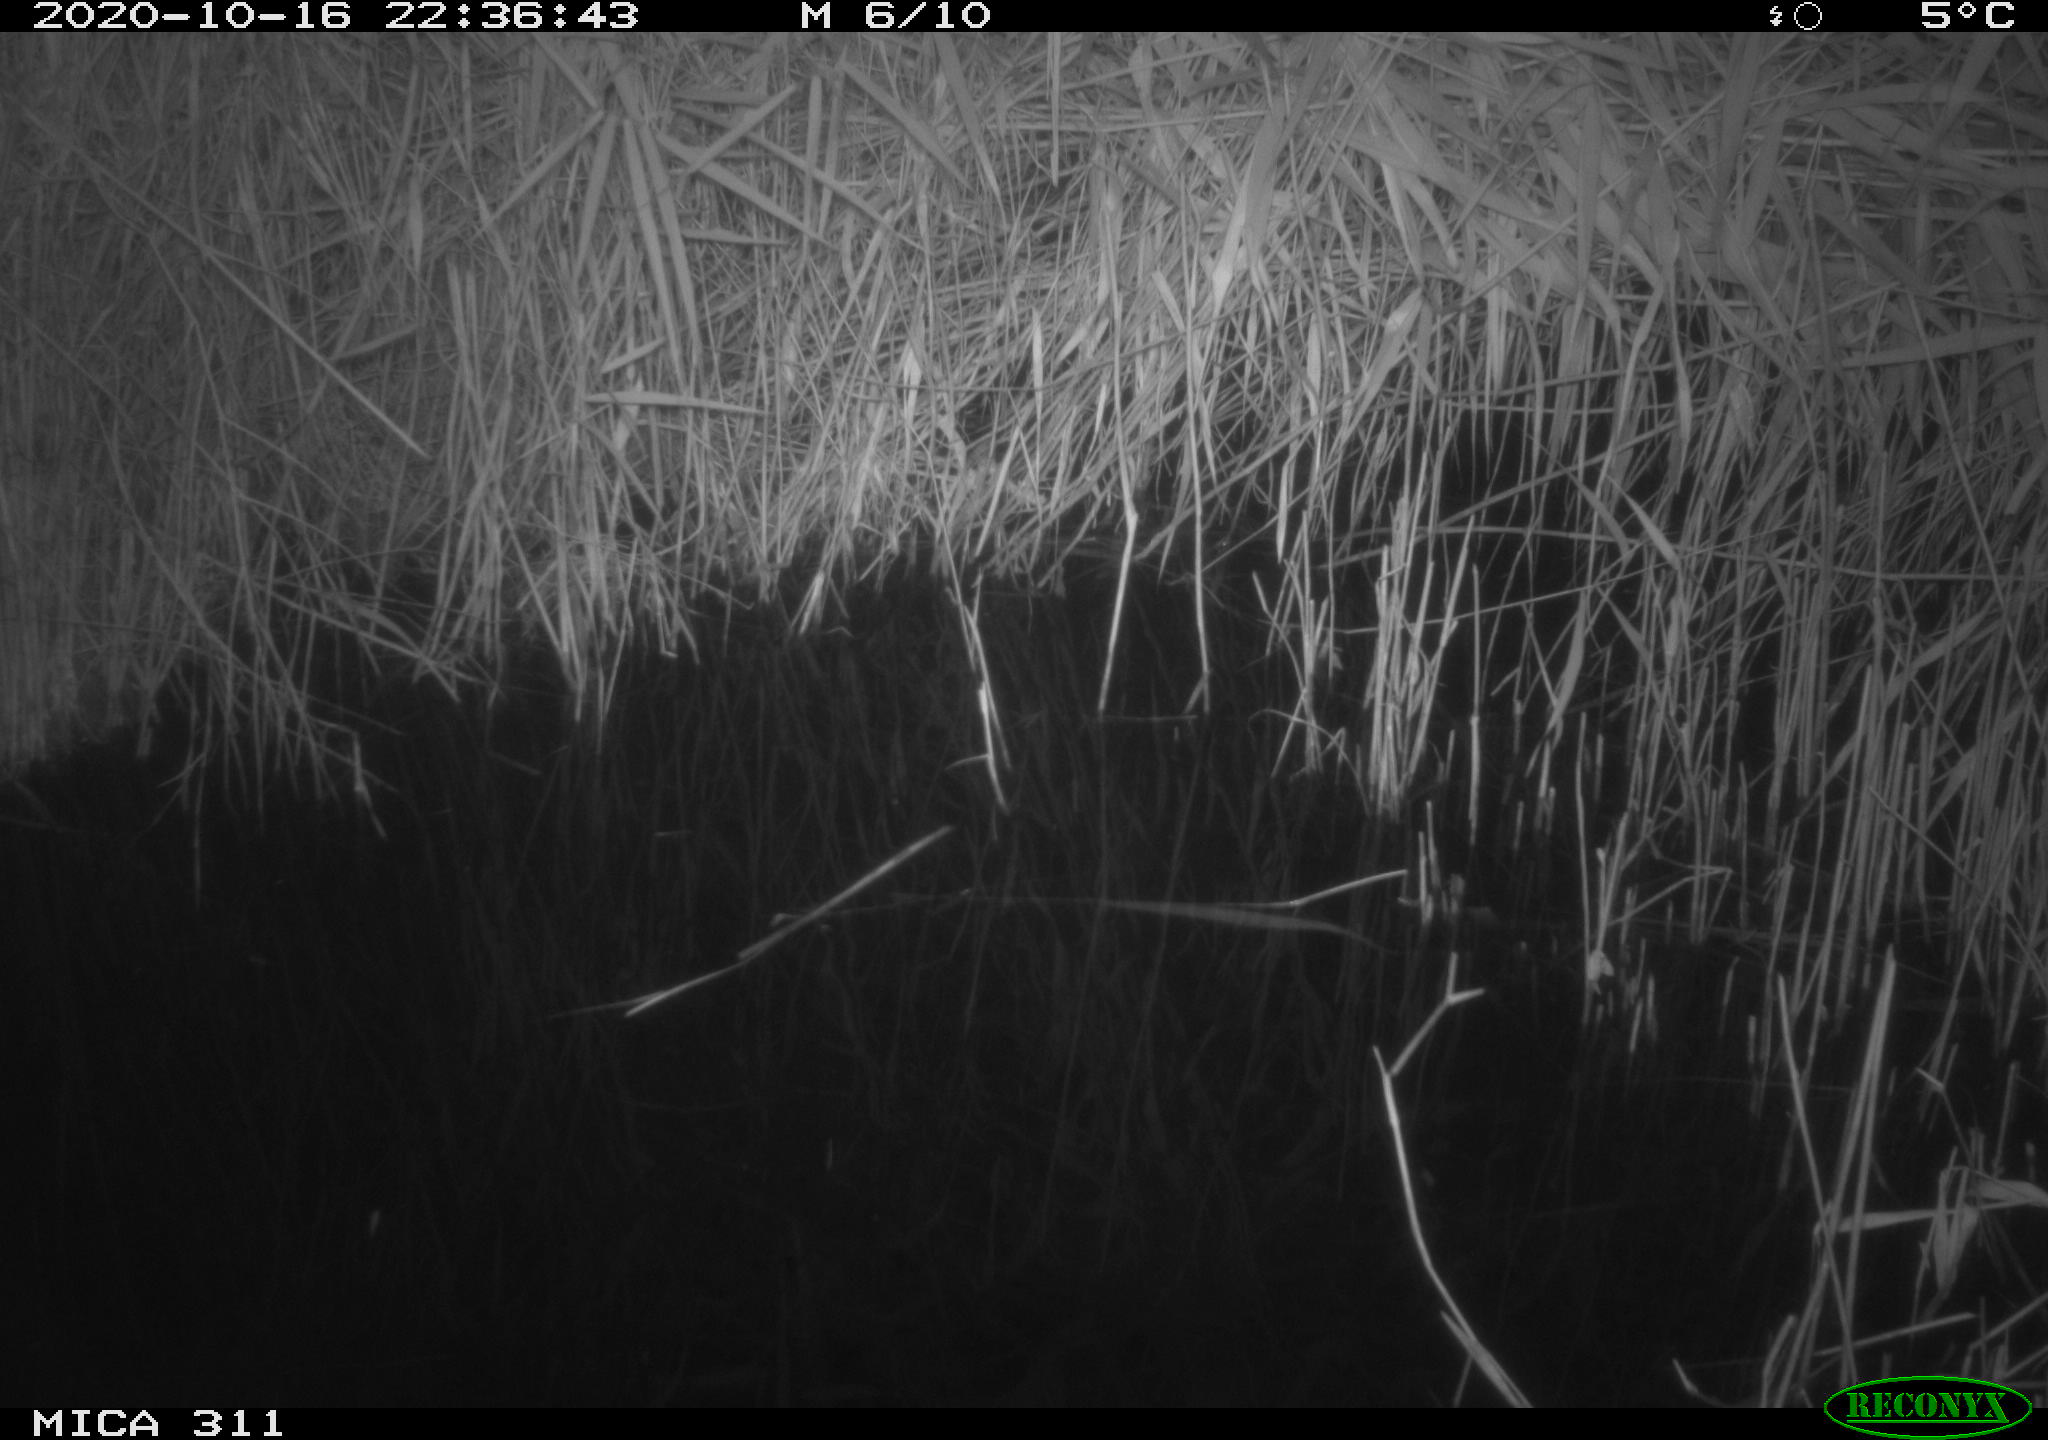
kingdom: Animalia
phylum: Chordata
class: Mammalia
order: Rodentia
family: Muridae
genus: Rattus
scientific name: Rattus norvegicus
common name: Brown rat
